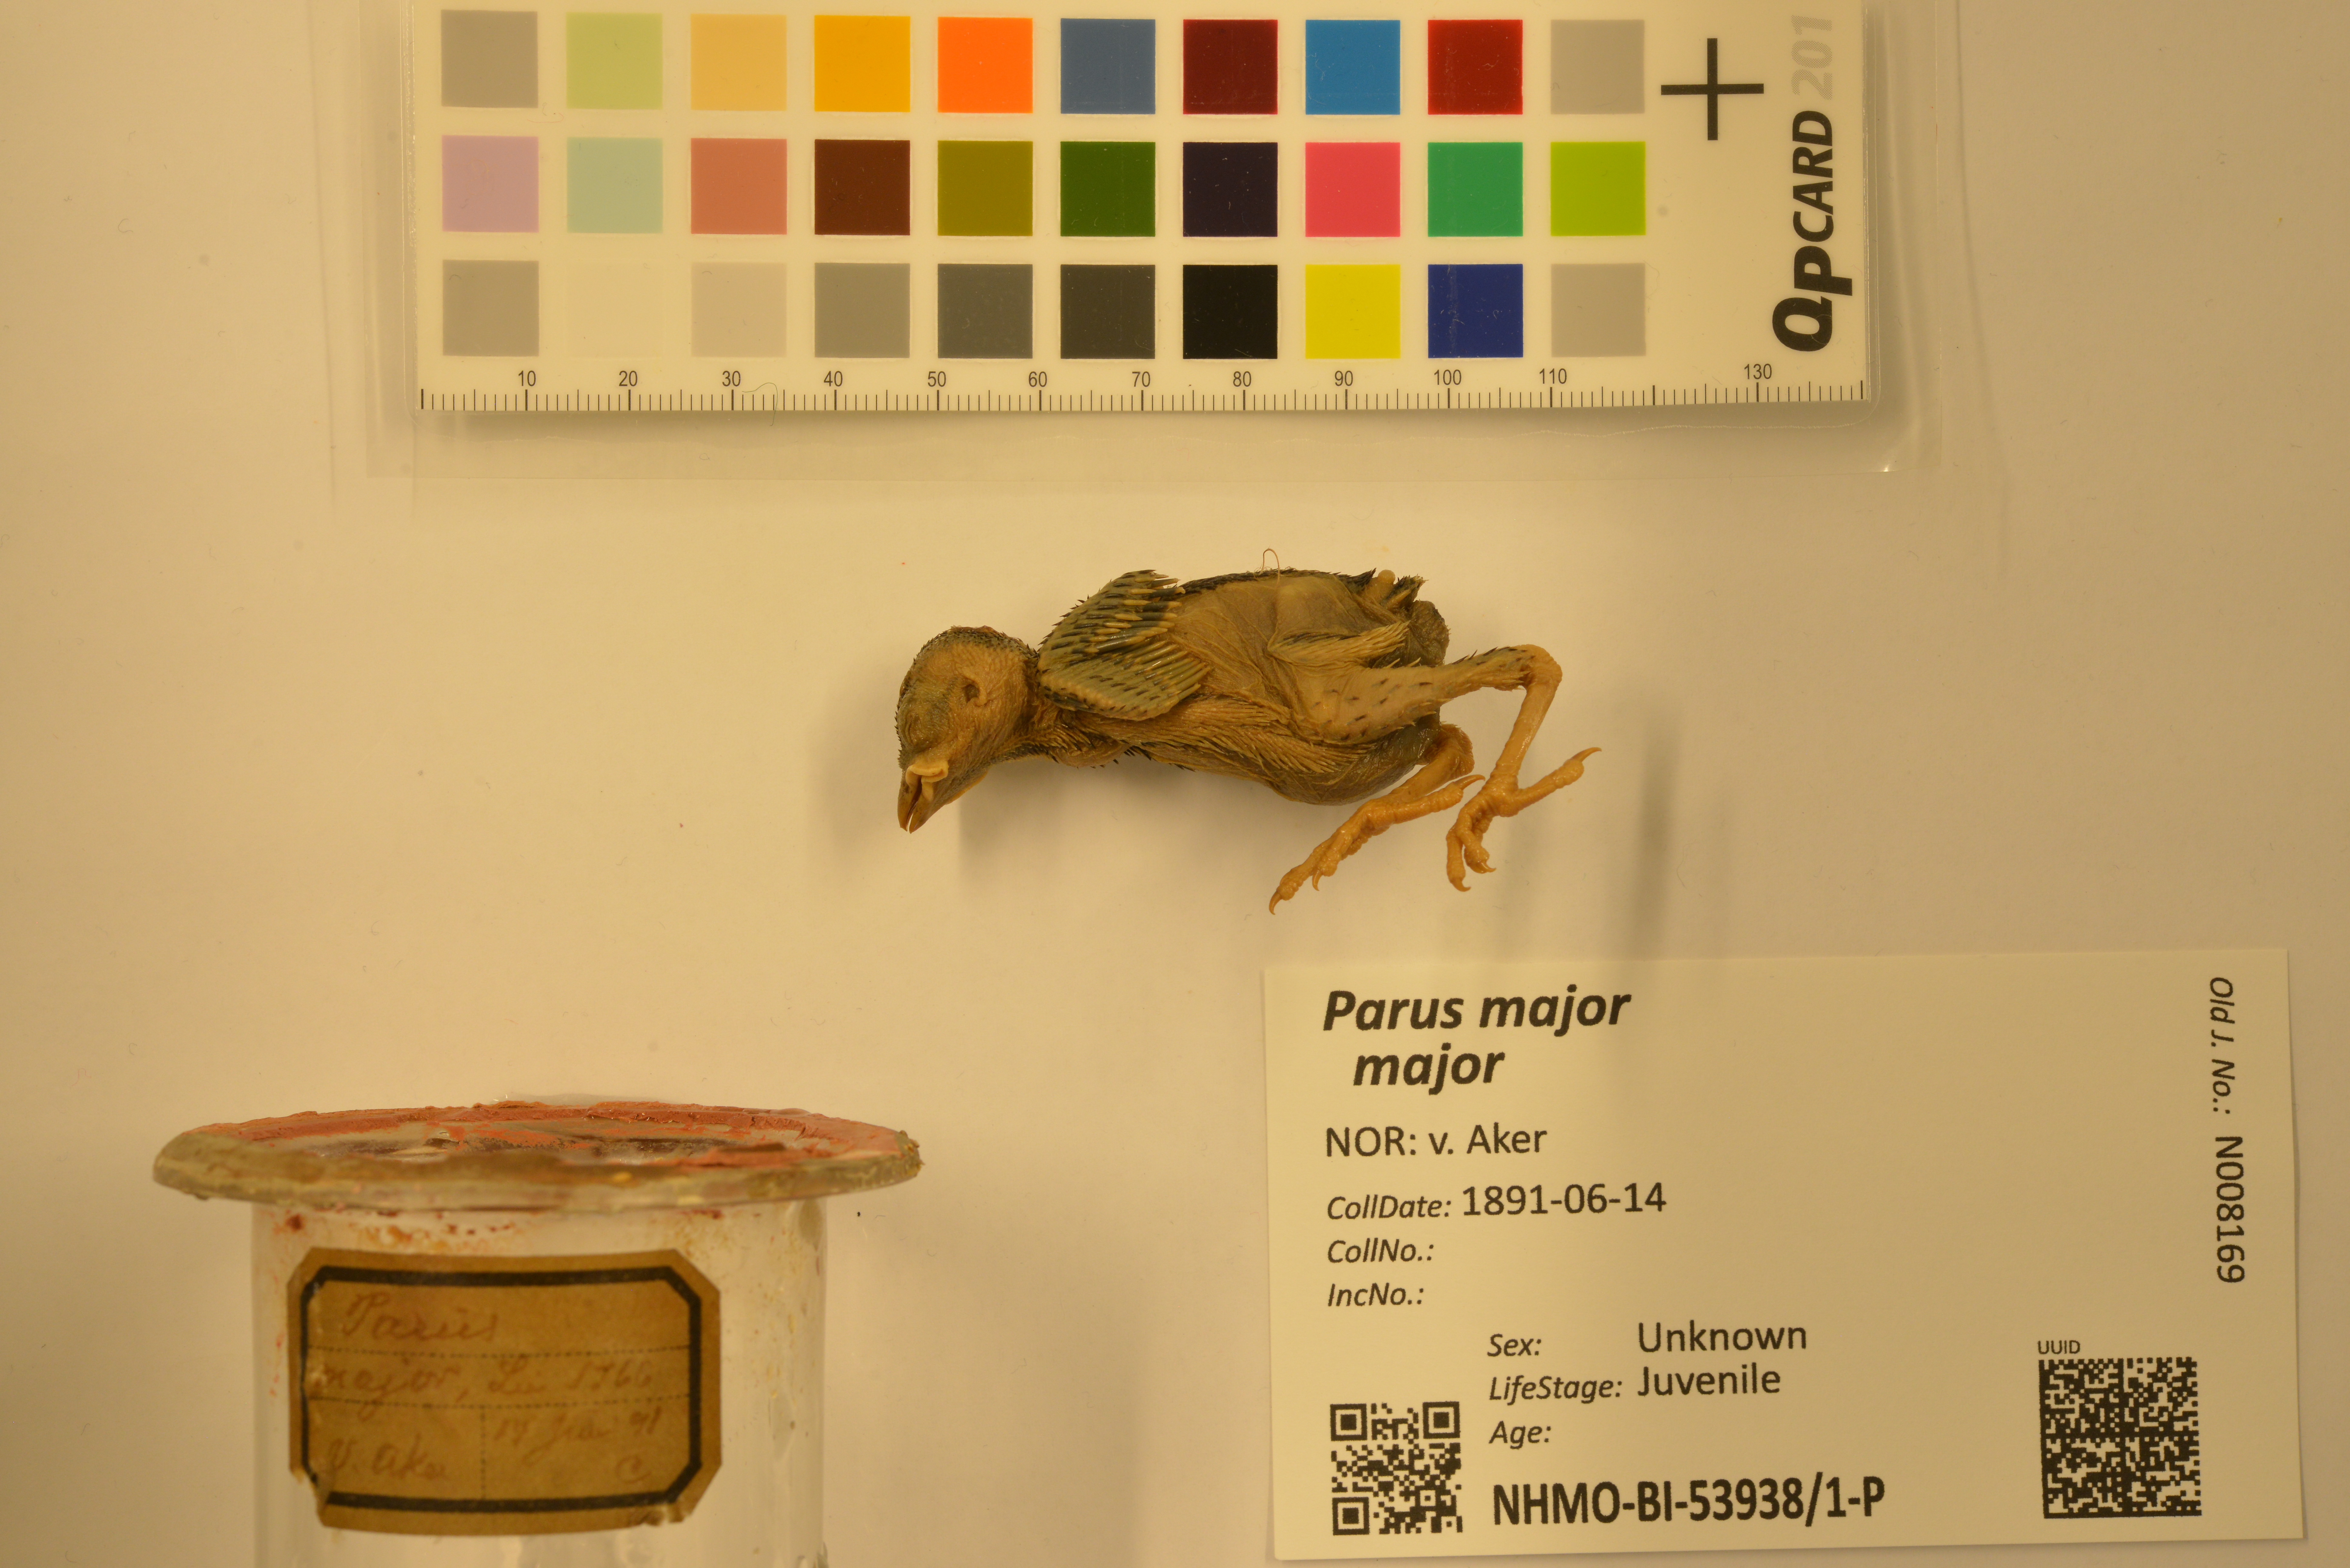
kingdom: Animalia
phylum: Chordata
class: Aves
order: Passeriformes
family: Paridae
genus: Parus
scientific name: Parus major
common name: Great tit
